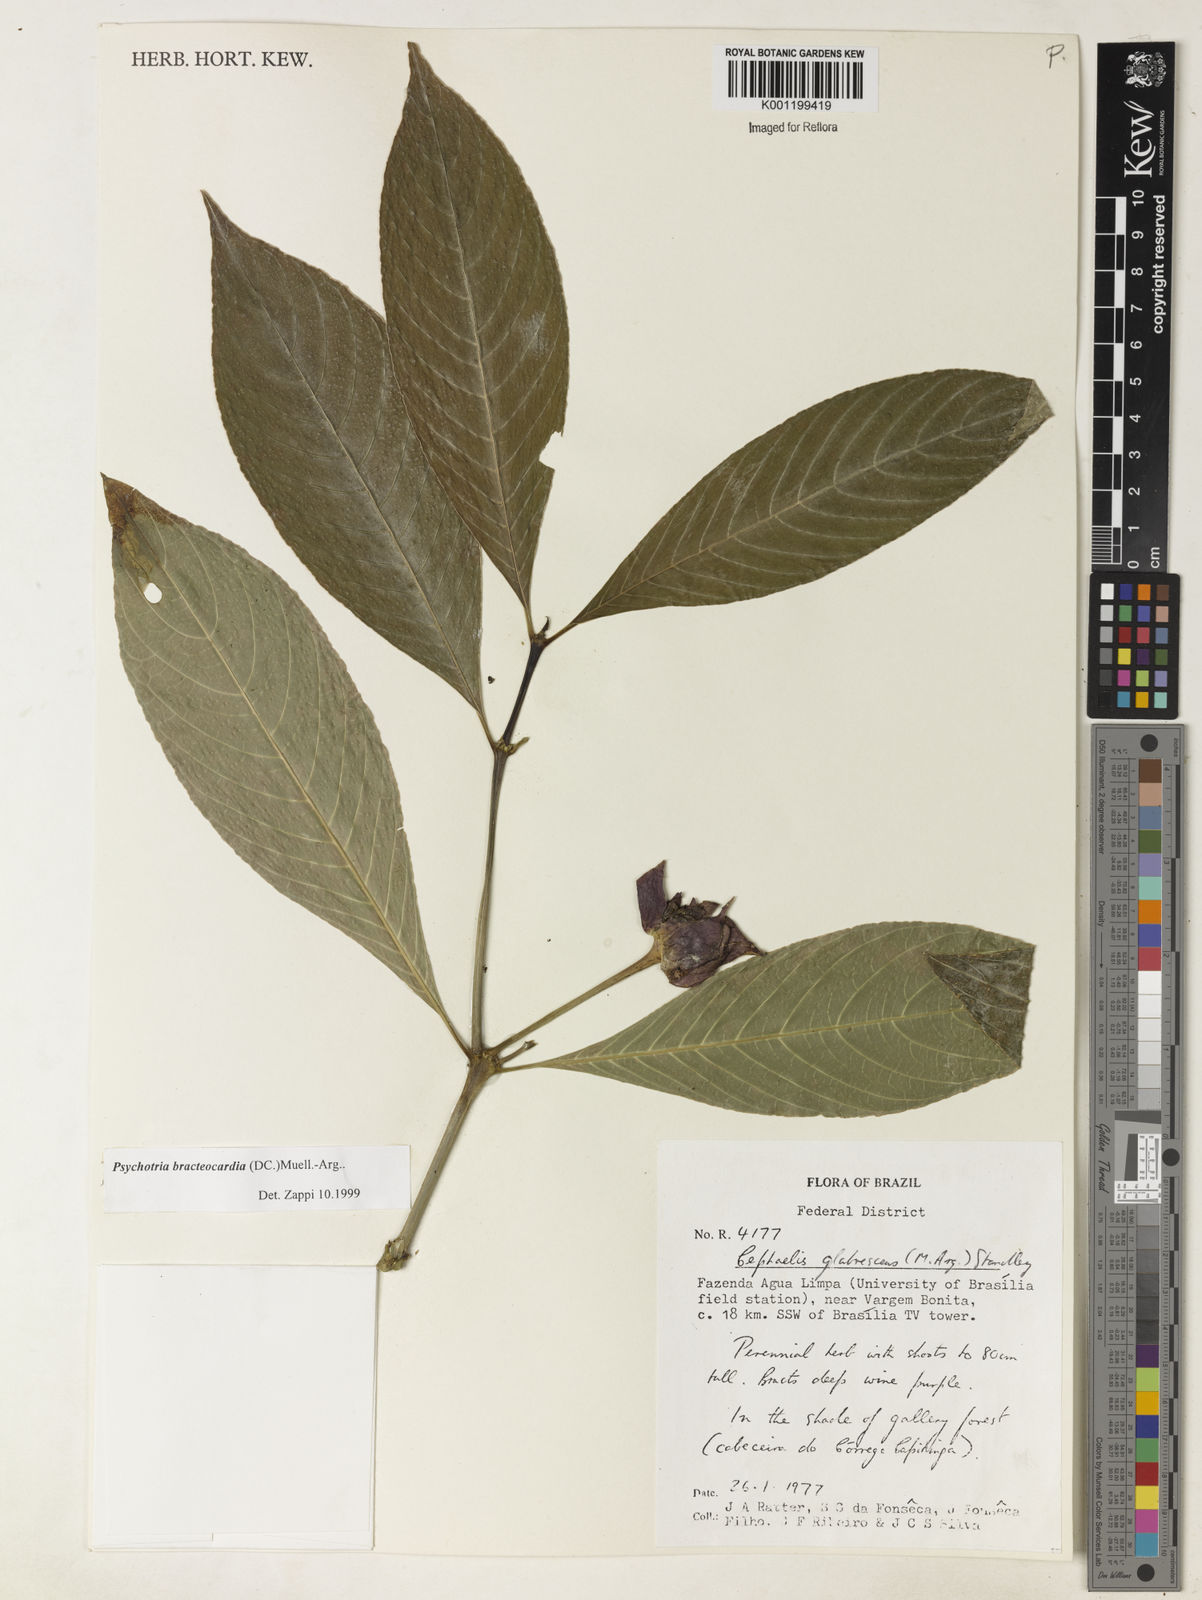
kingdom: Plantae
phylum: Tracheophyta
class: Magnoliopsida
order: Gentianales
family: Rubiaceae
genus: Psychotria
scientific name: Psychotria
